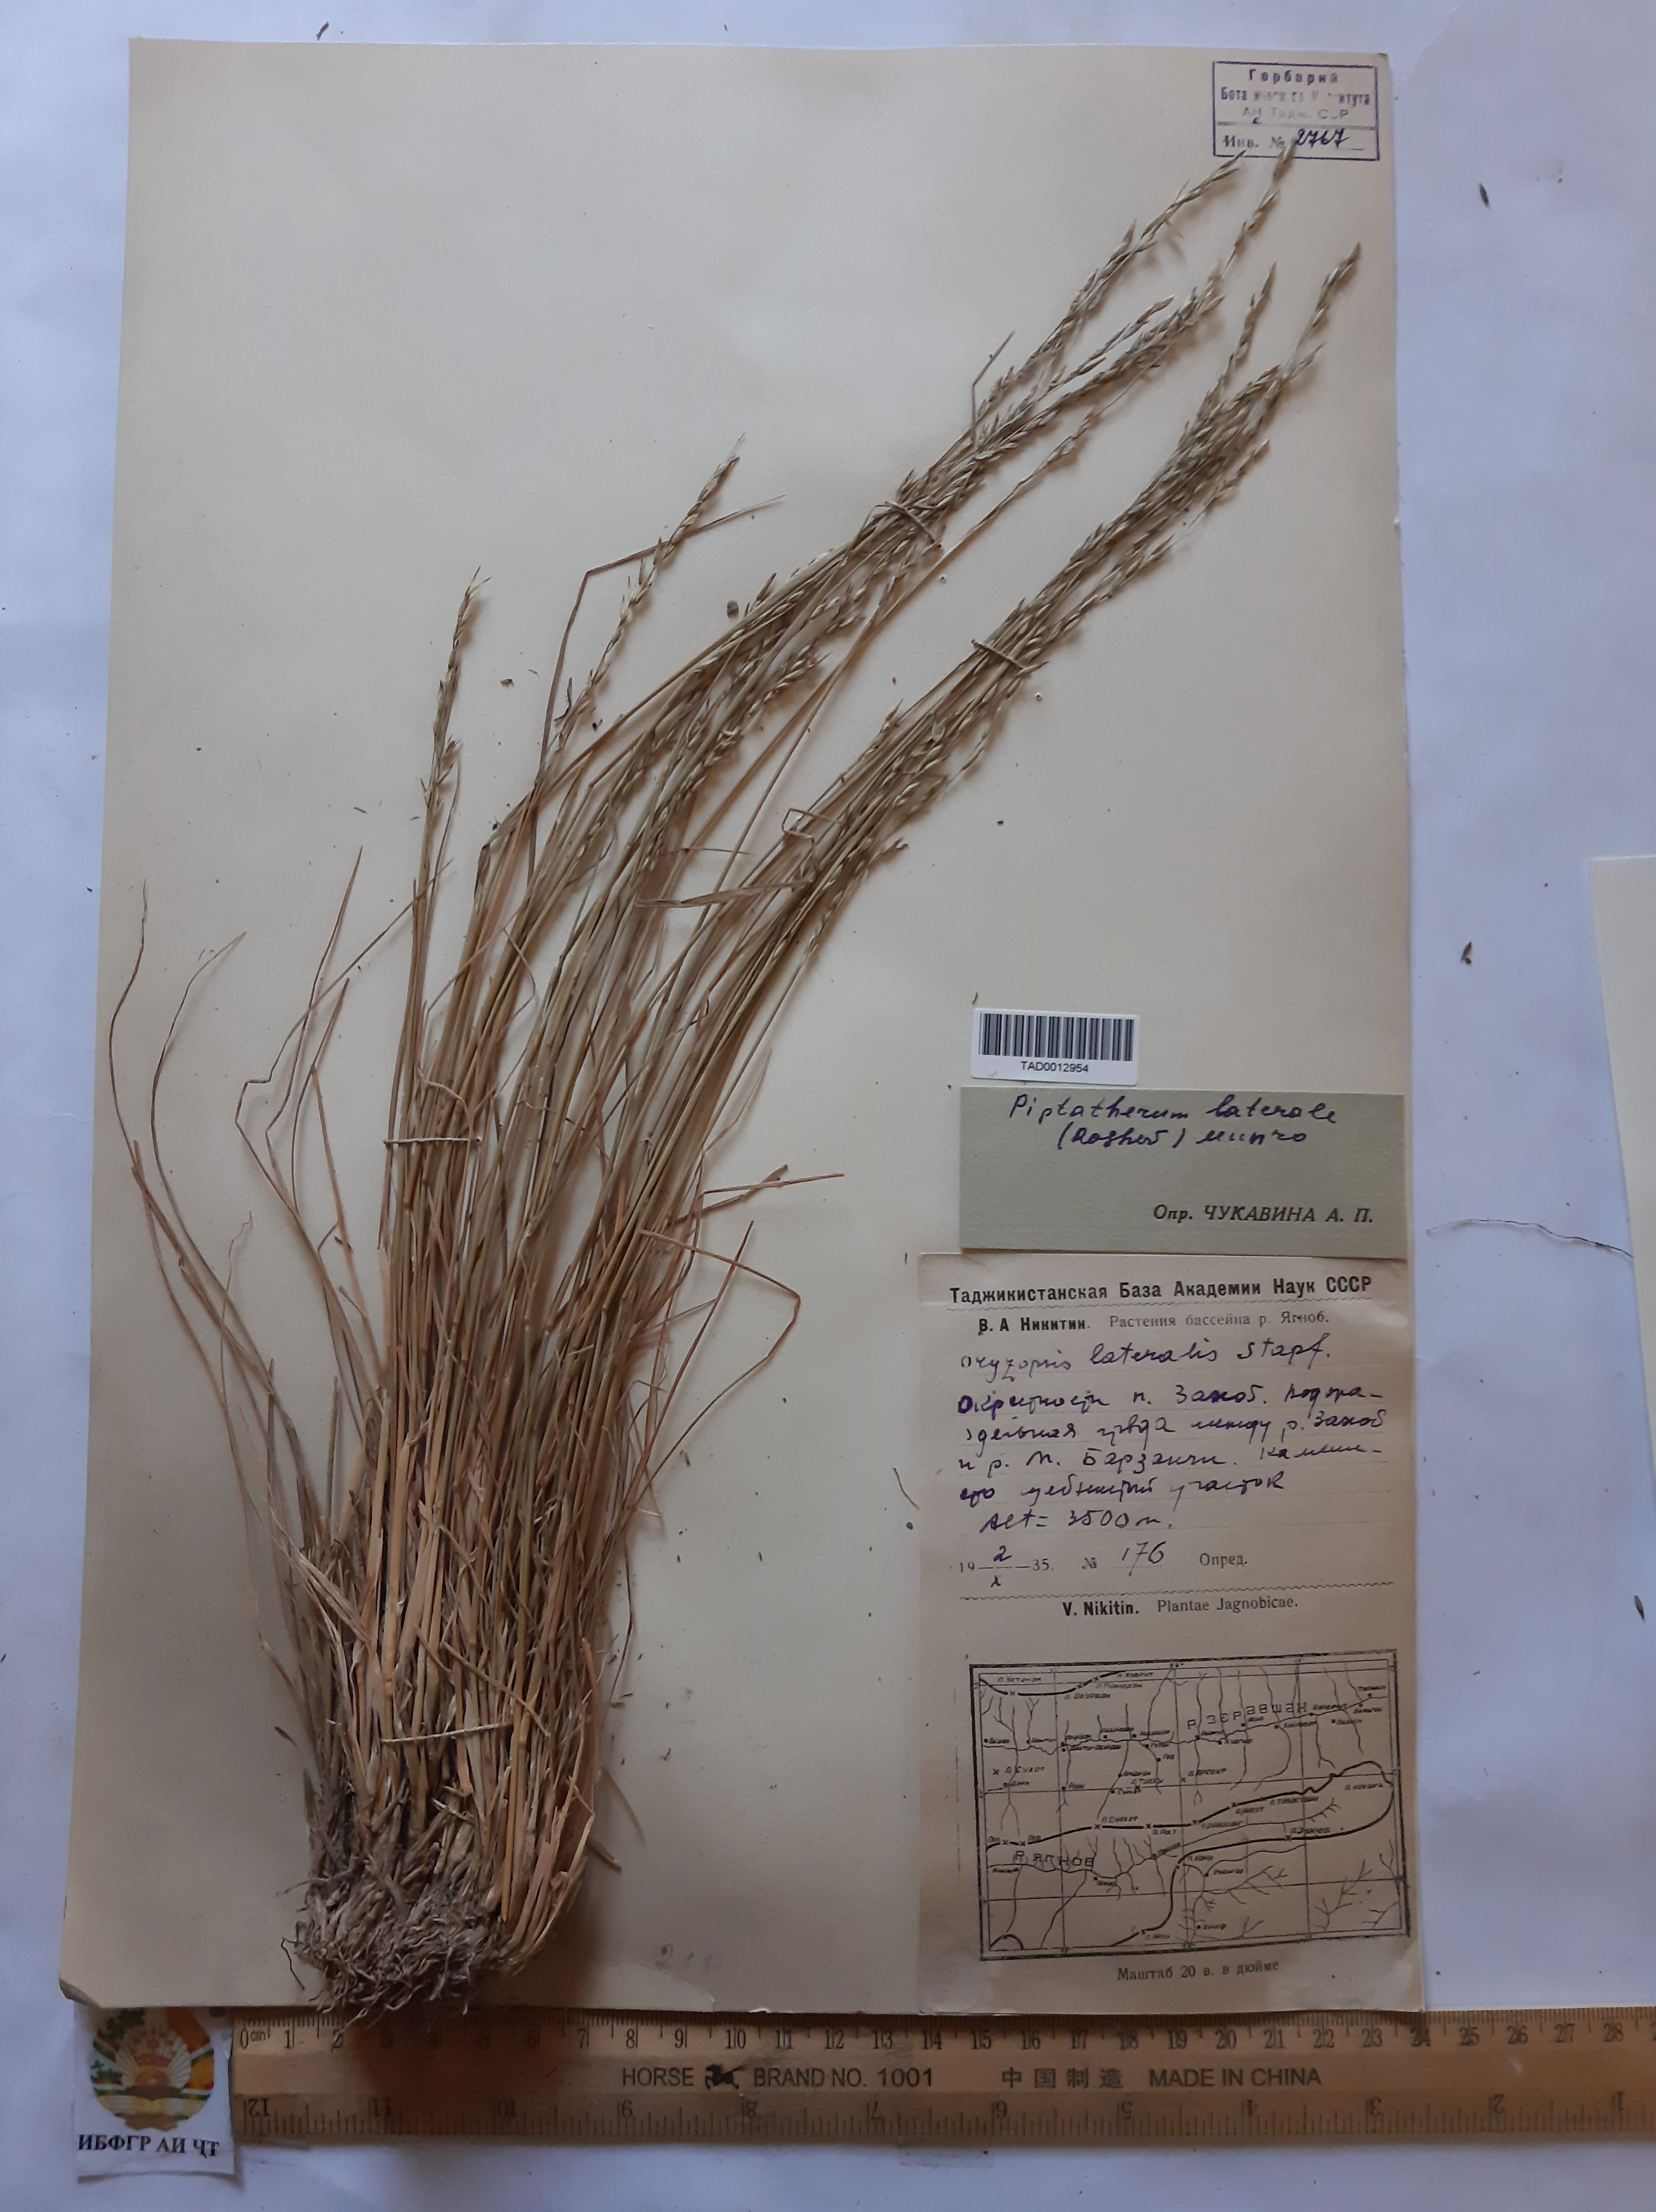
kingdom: Plantae
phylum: Tracheophyta
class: Liliopsida
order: Poales
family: Poaceae
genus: Piptatherum
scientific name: Piptatherum laterale
